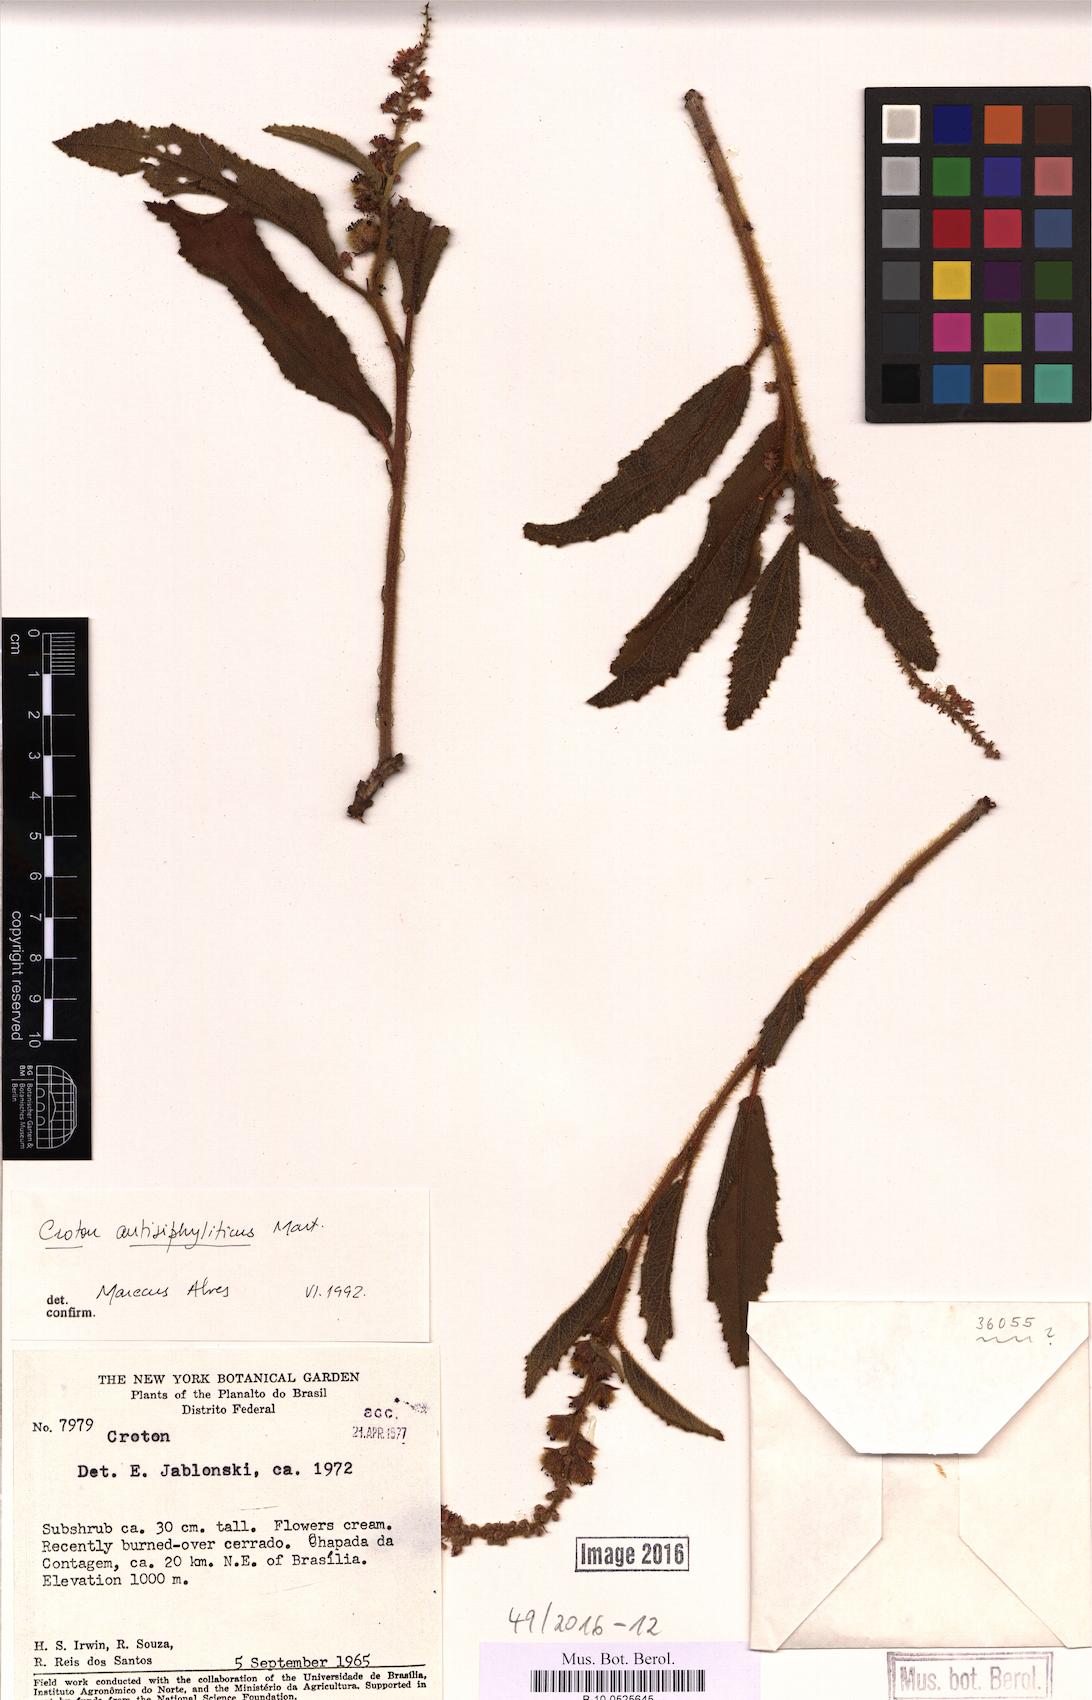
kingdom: Plantae
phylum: Tracheophyta
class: Magnoliopsida
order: Malpighiales
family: Euphorbiaceae
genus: Croton
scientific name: Croton antisyphiliticus
